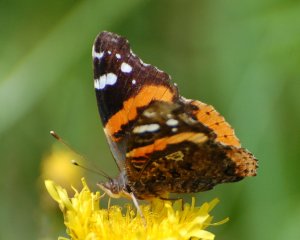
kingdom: Animalia
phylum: Arthropoda
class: Insecta
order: Lepidoptera
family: Nymphalidae
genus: Vanessa
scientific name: Vanessa atalanta
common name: Red Admiral
